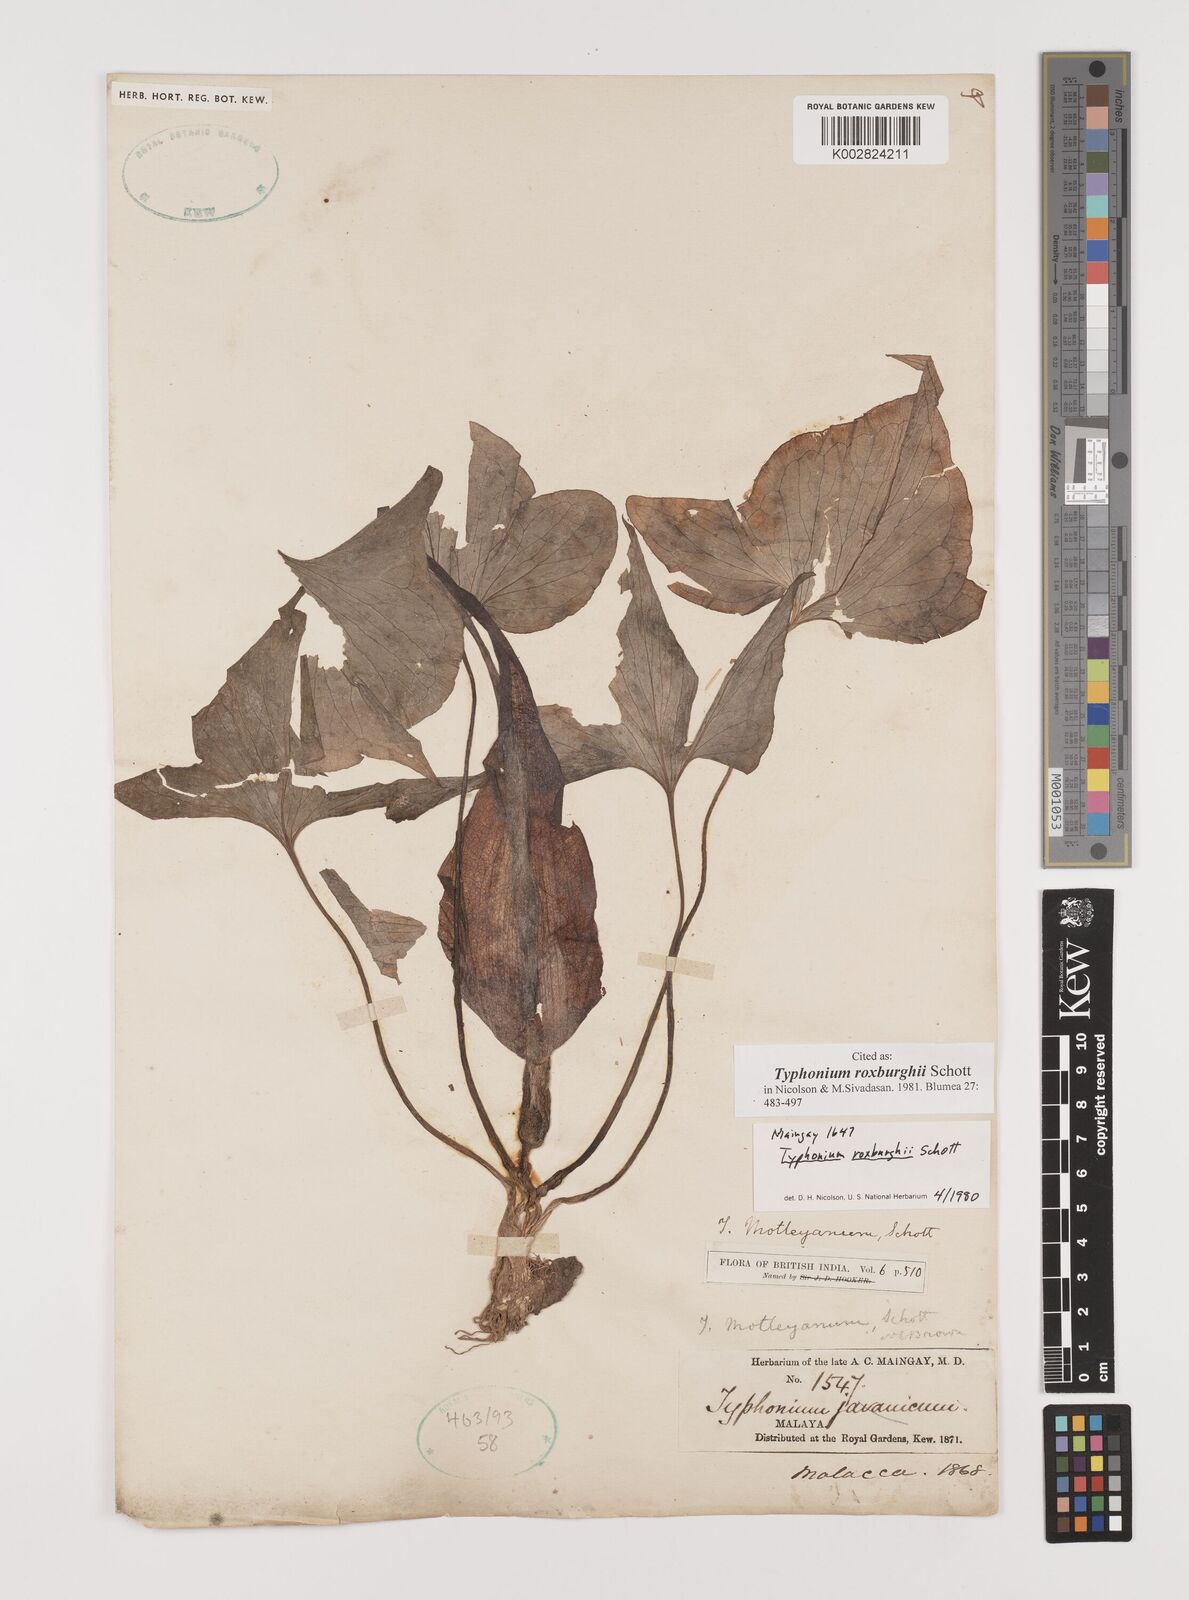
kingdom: Plantae
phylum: Tracheophyta
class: Liliopsida
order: Alismatales
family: Araceae
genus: Typhonium
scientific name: Typhonium roxburghii
